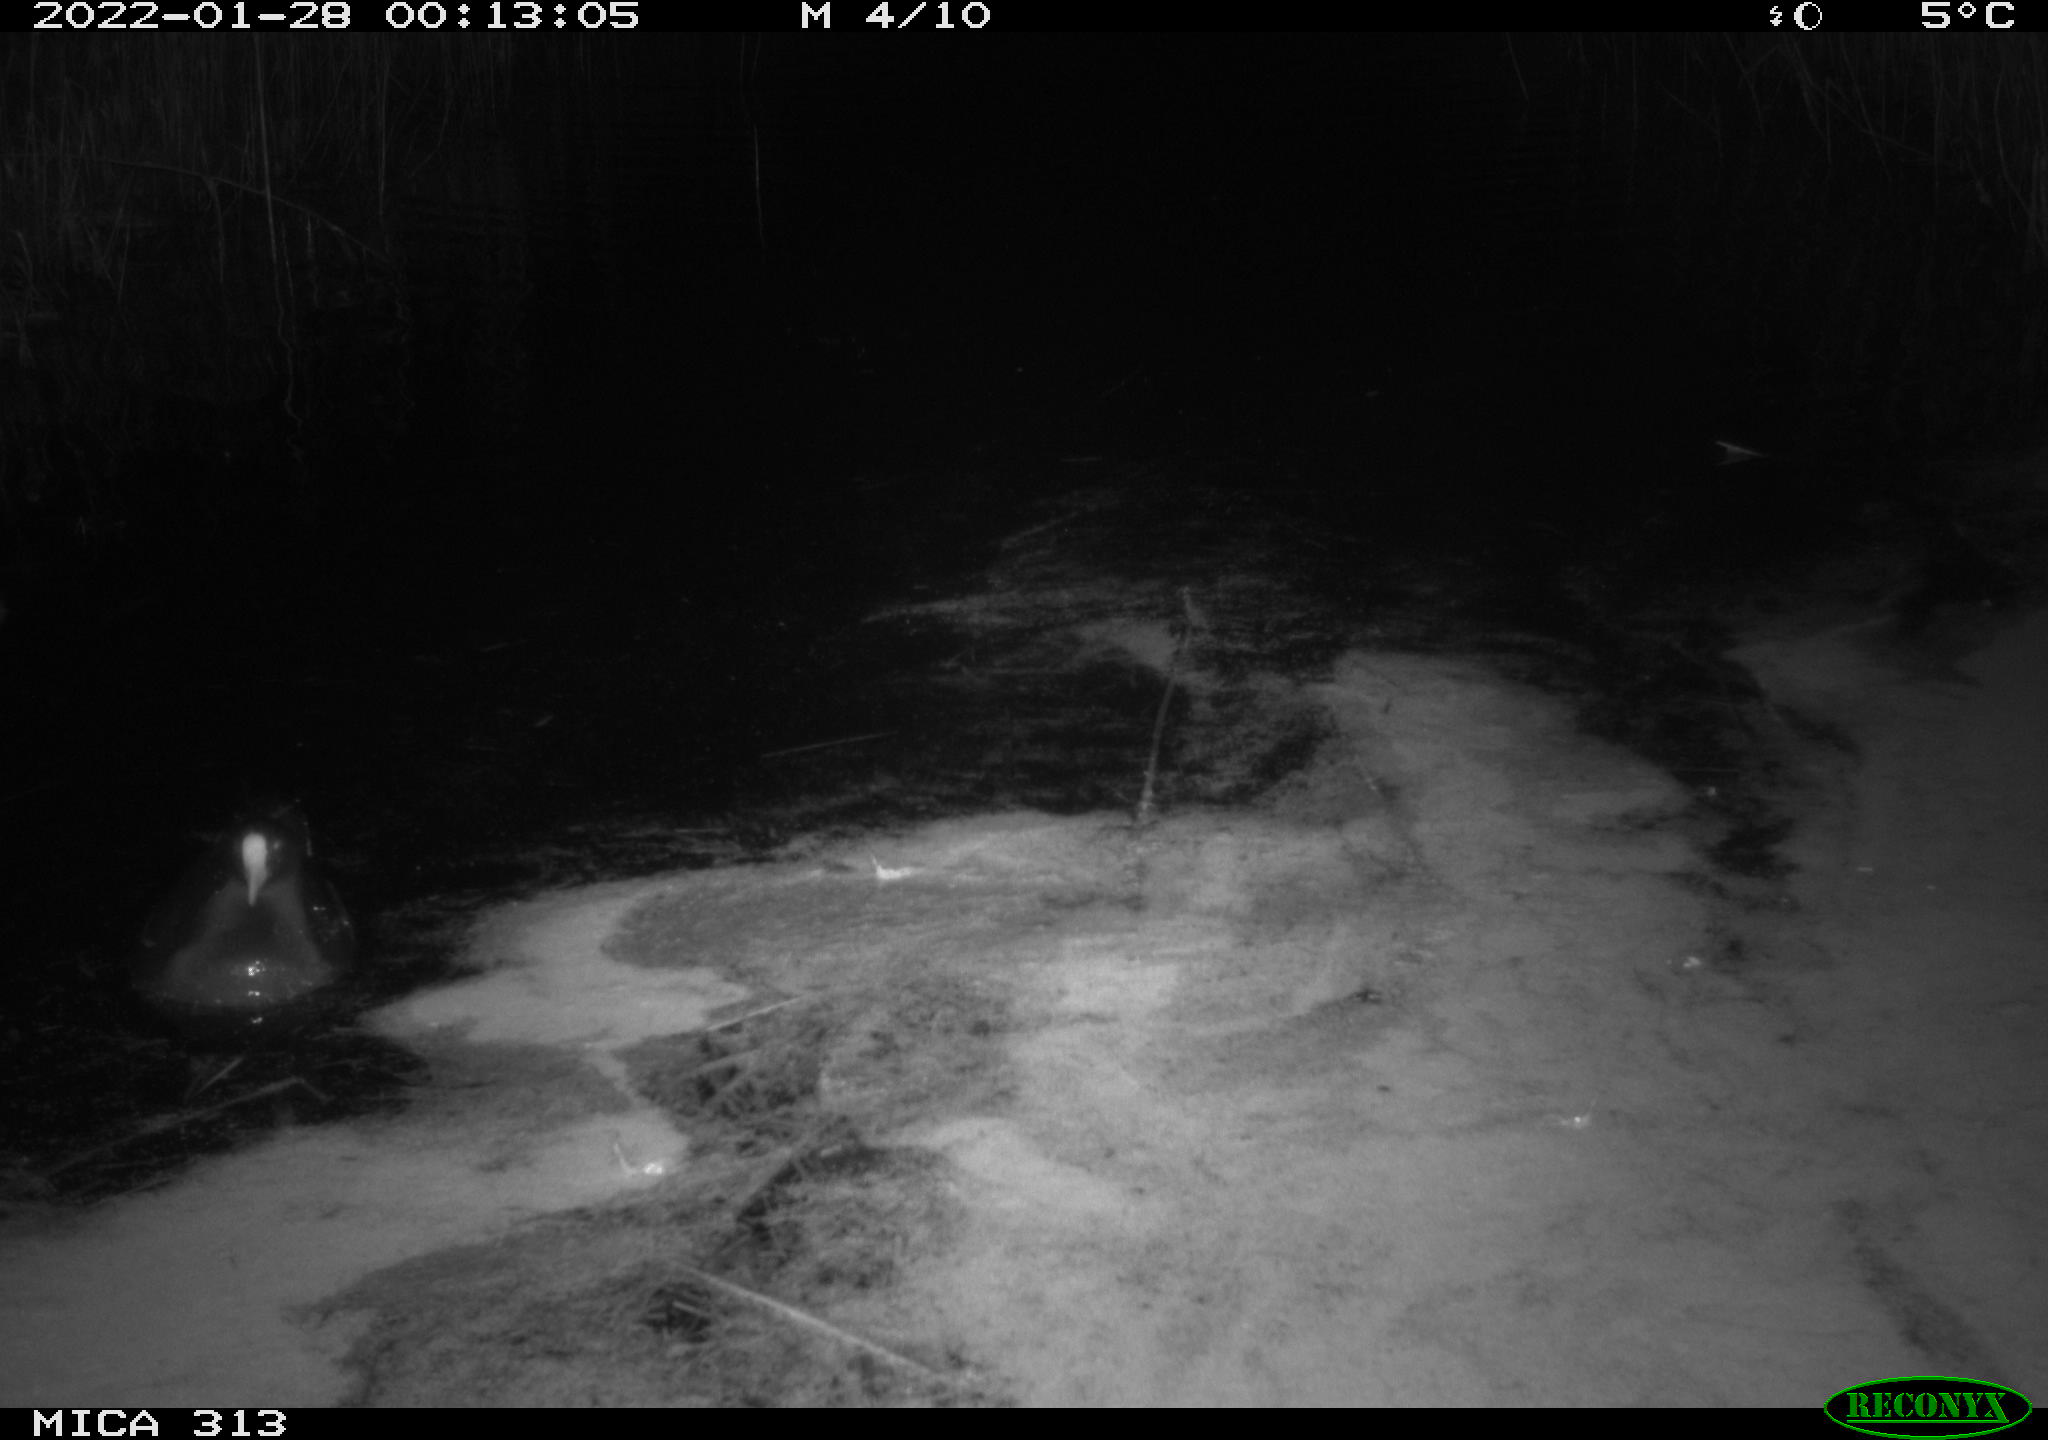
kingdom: Animalia
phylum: Chordata
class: Aves
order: Anseriformes
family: Anatidae
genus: Anas
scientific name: Anas
